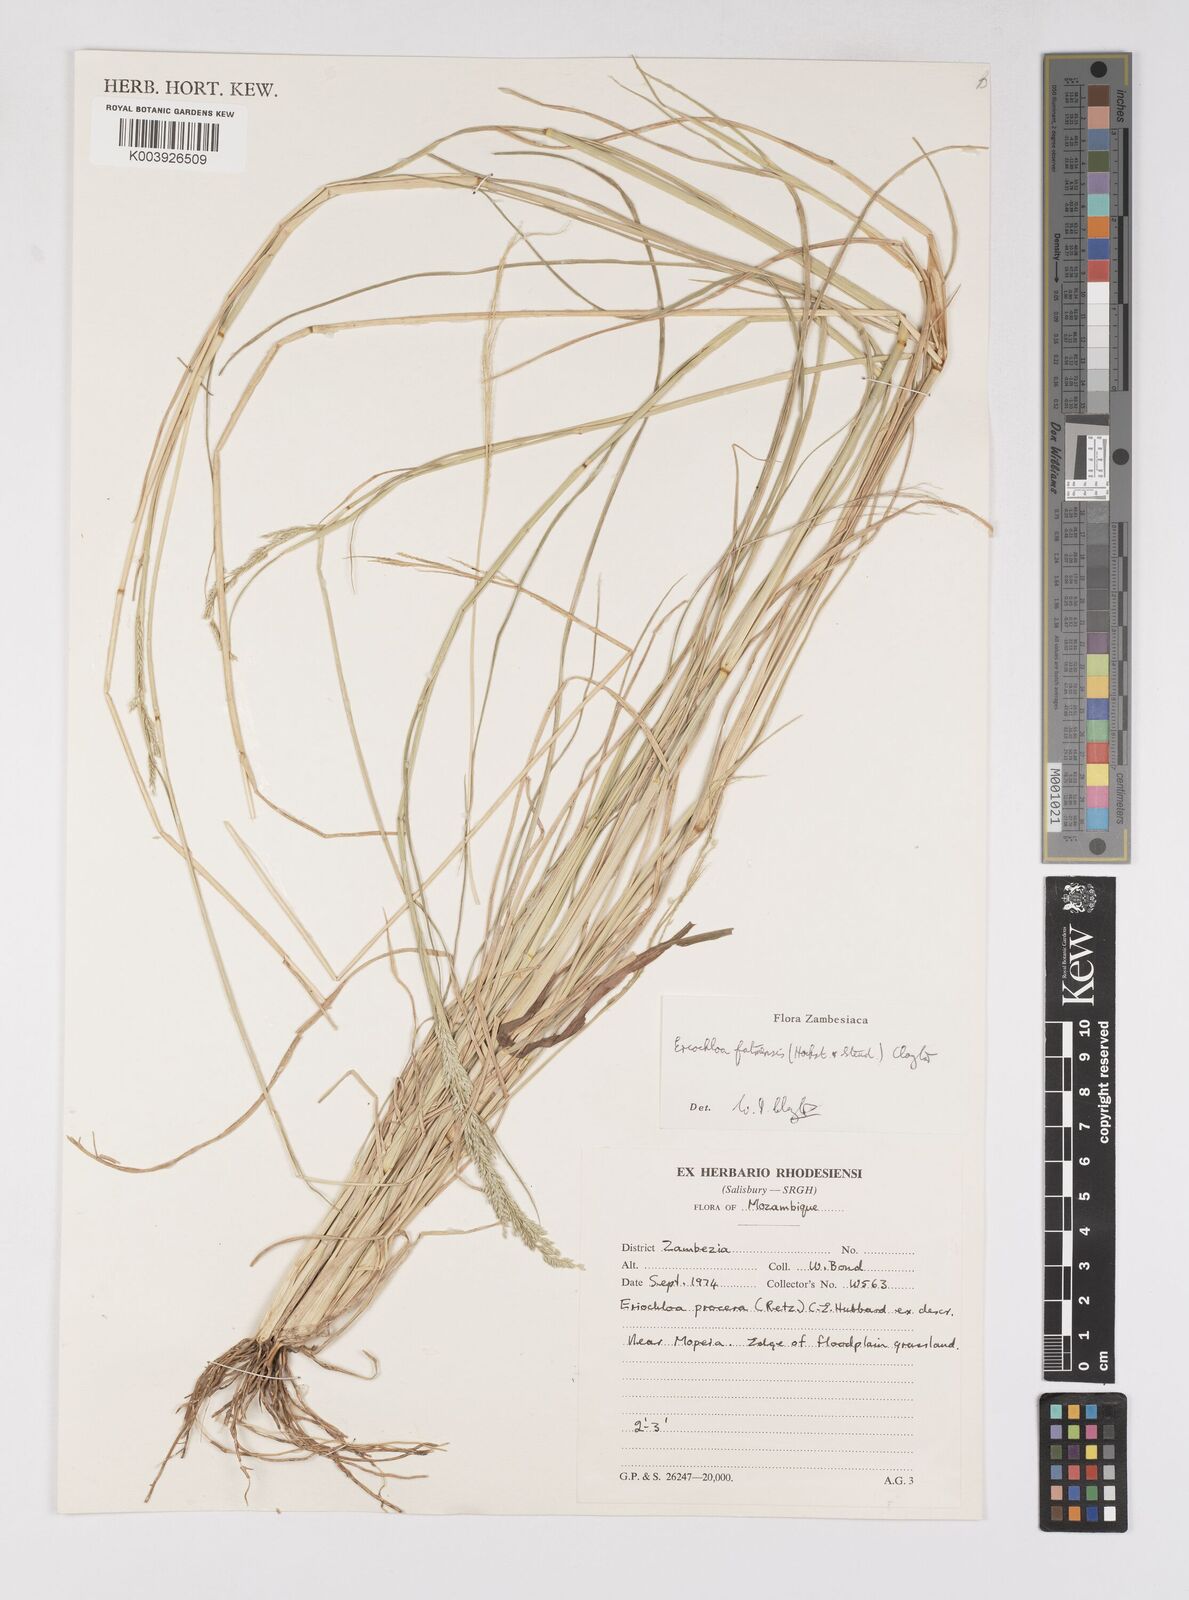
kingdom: Plantae
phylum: Tracheophyta
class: Liliopsida
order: Poales
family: Poaceae
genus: Eriochloa
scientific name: Eriochloa barbatus
